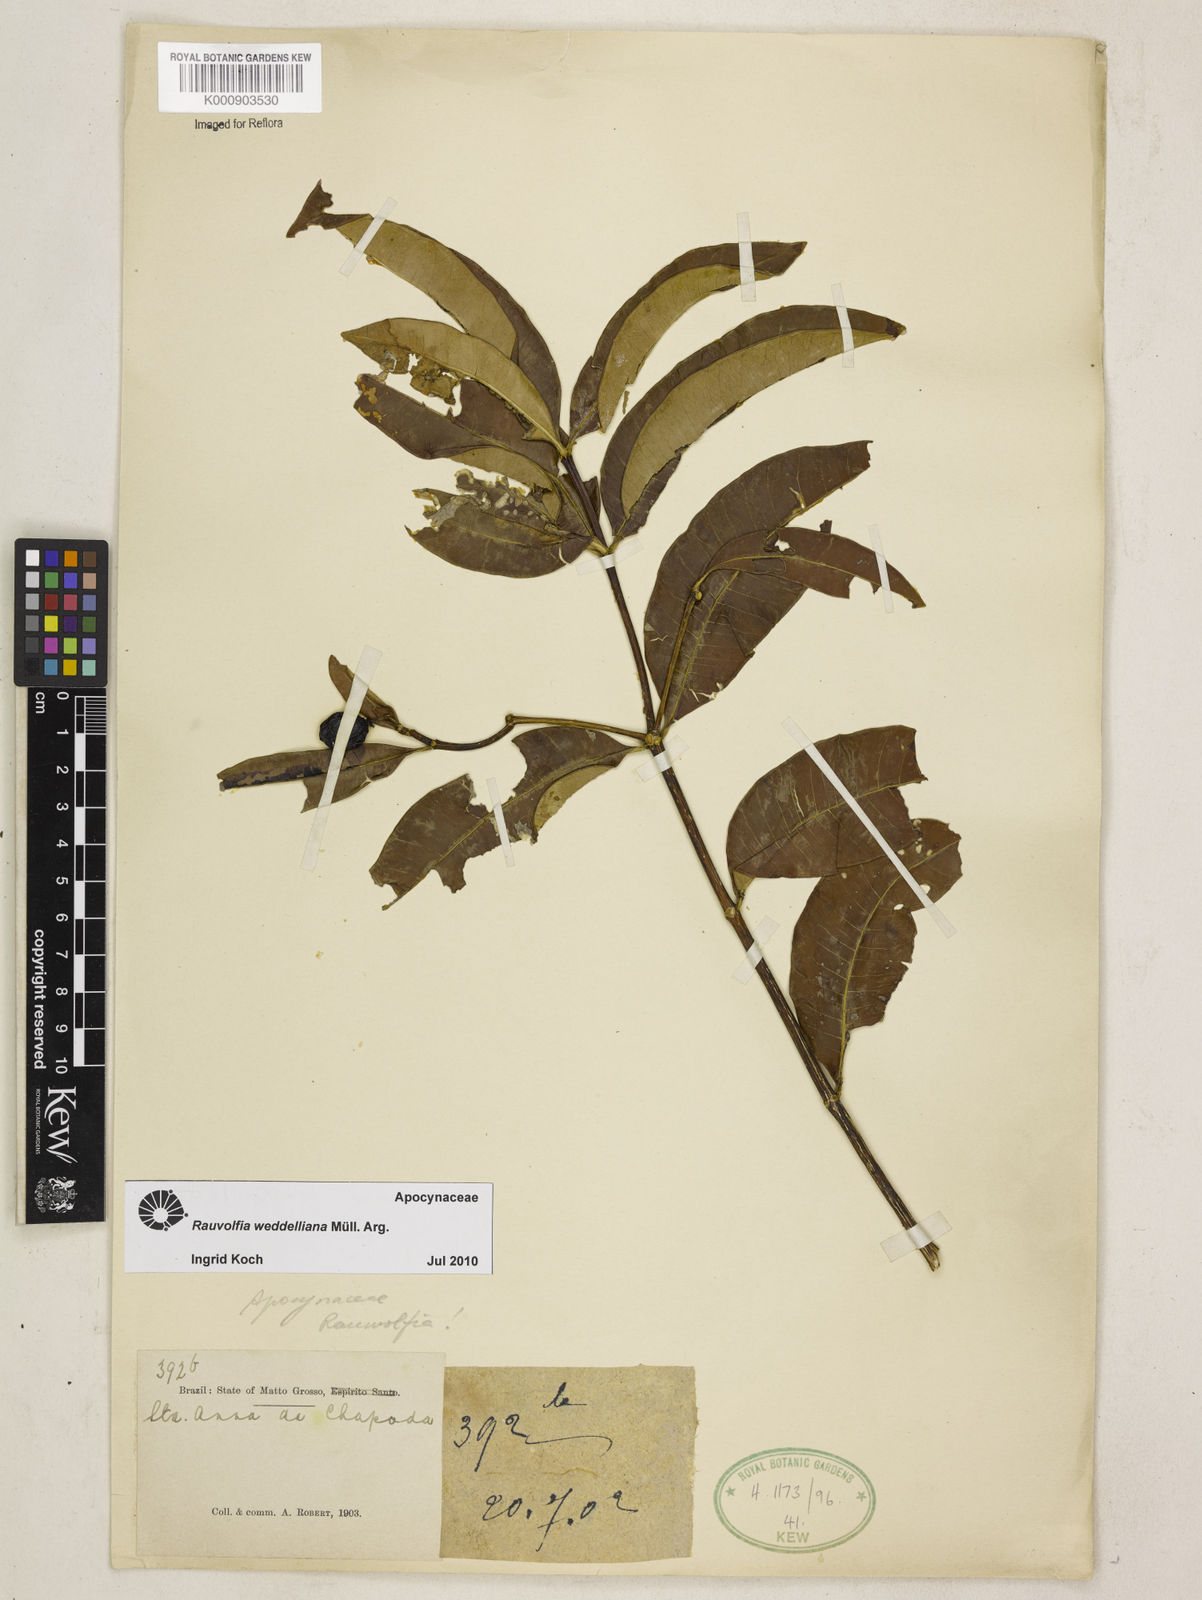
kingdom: Plantae
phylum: Tracheophyta
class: Magnoliopsida
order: Gentianales
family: Apocynaceae
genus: Rauvolfia
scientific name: Rauvolfia
